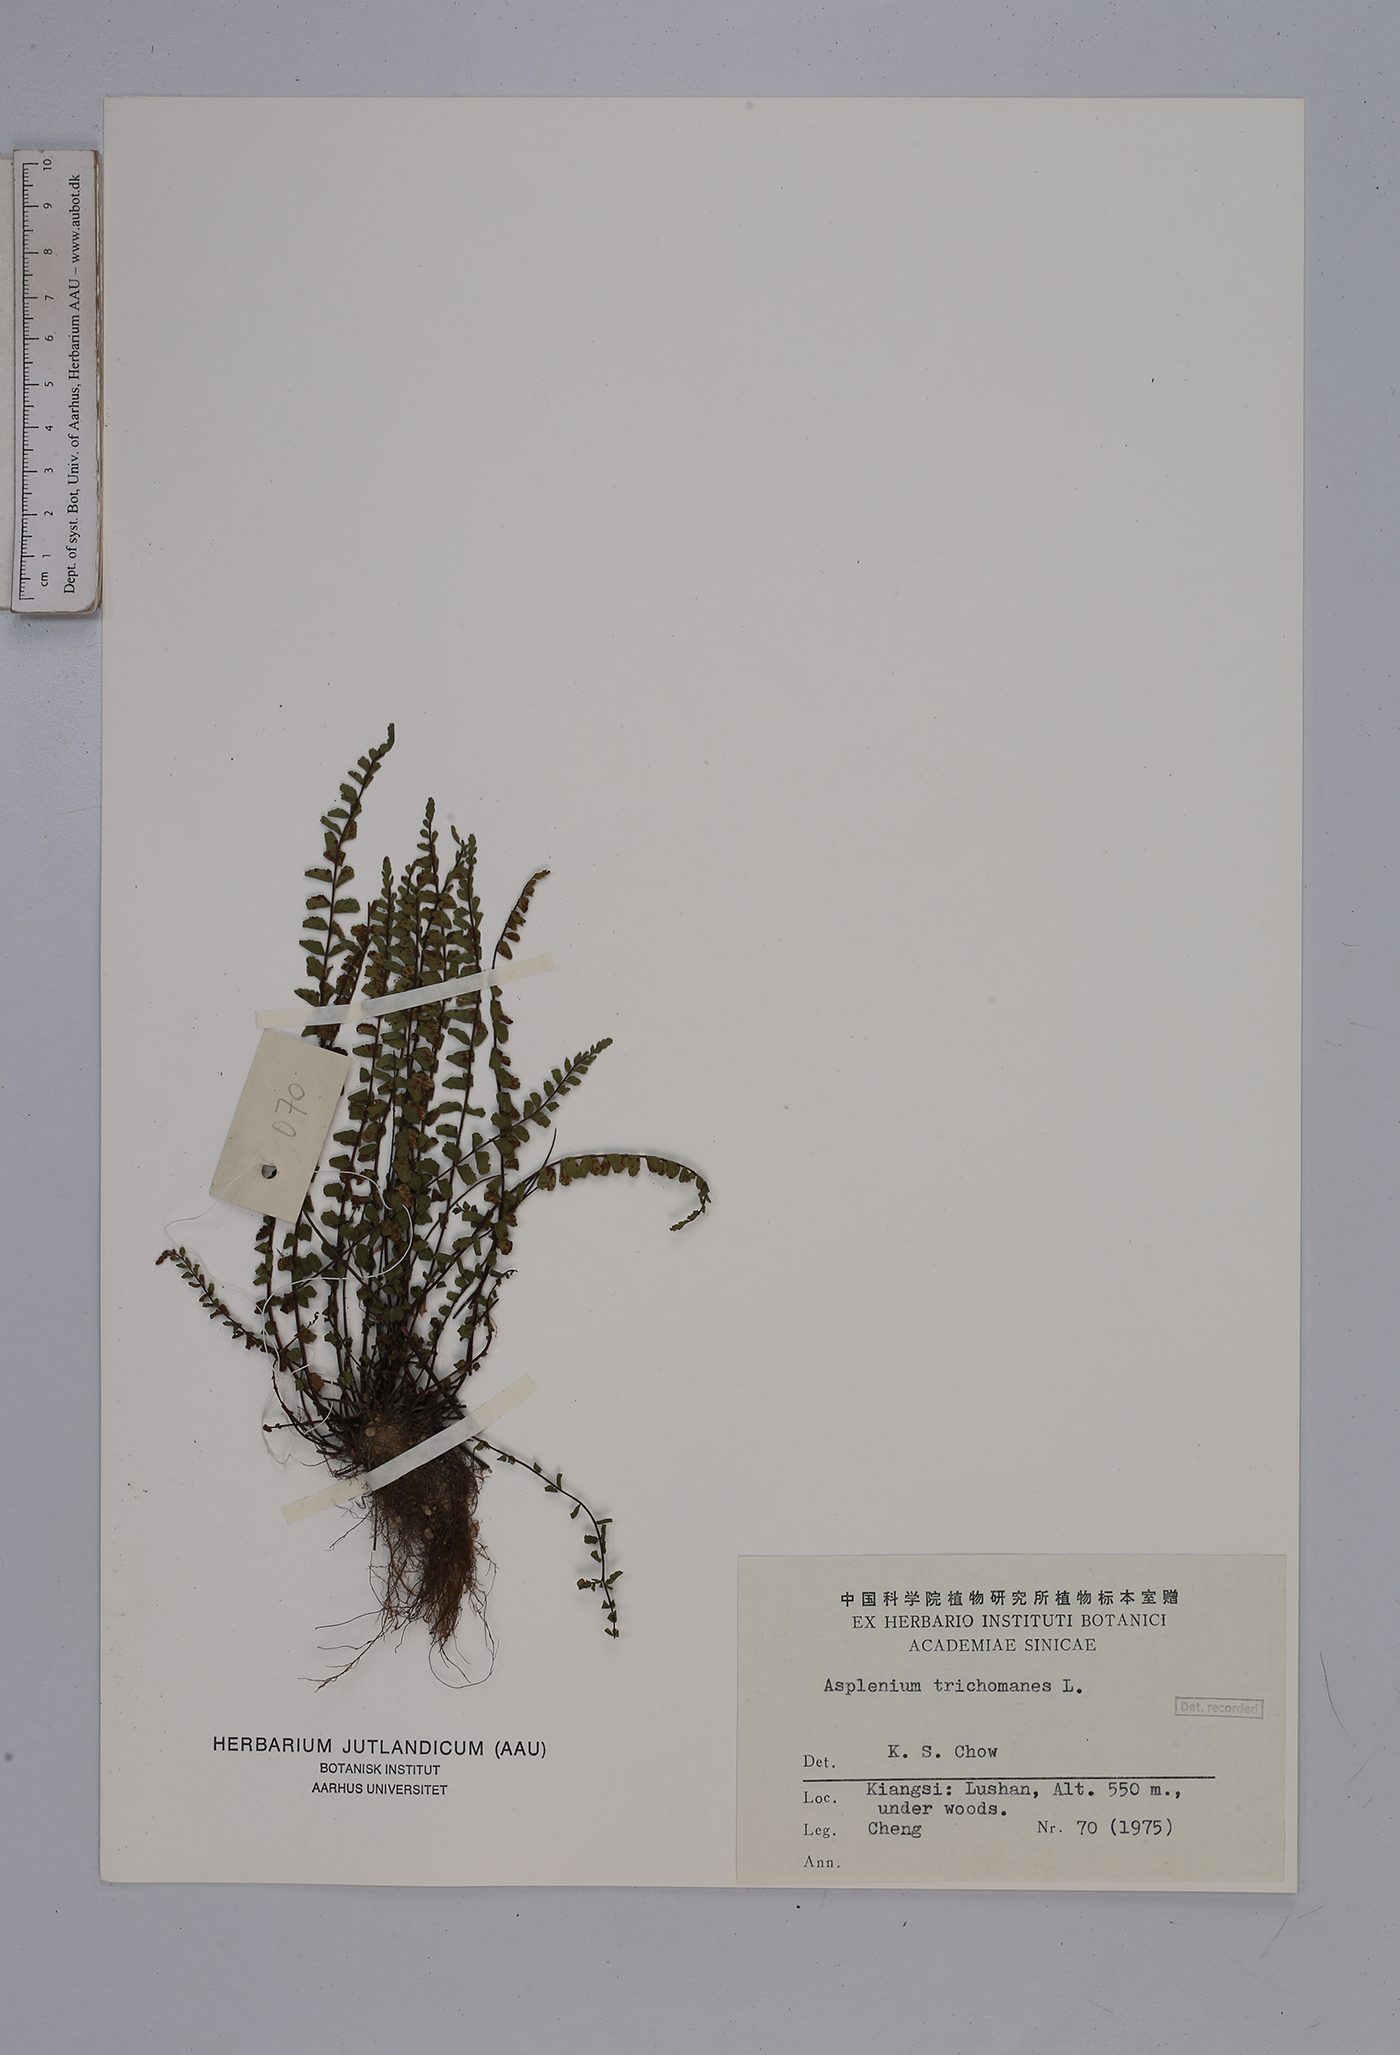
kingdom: Plantae
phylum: Tracheophyta
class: Polypodiopsida
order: Polypodiales
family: Aspleniaceae
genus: Asplenium
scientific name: Asplenium trichomanes
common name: Maidenhair spleenwort
